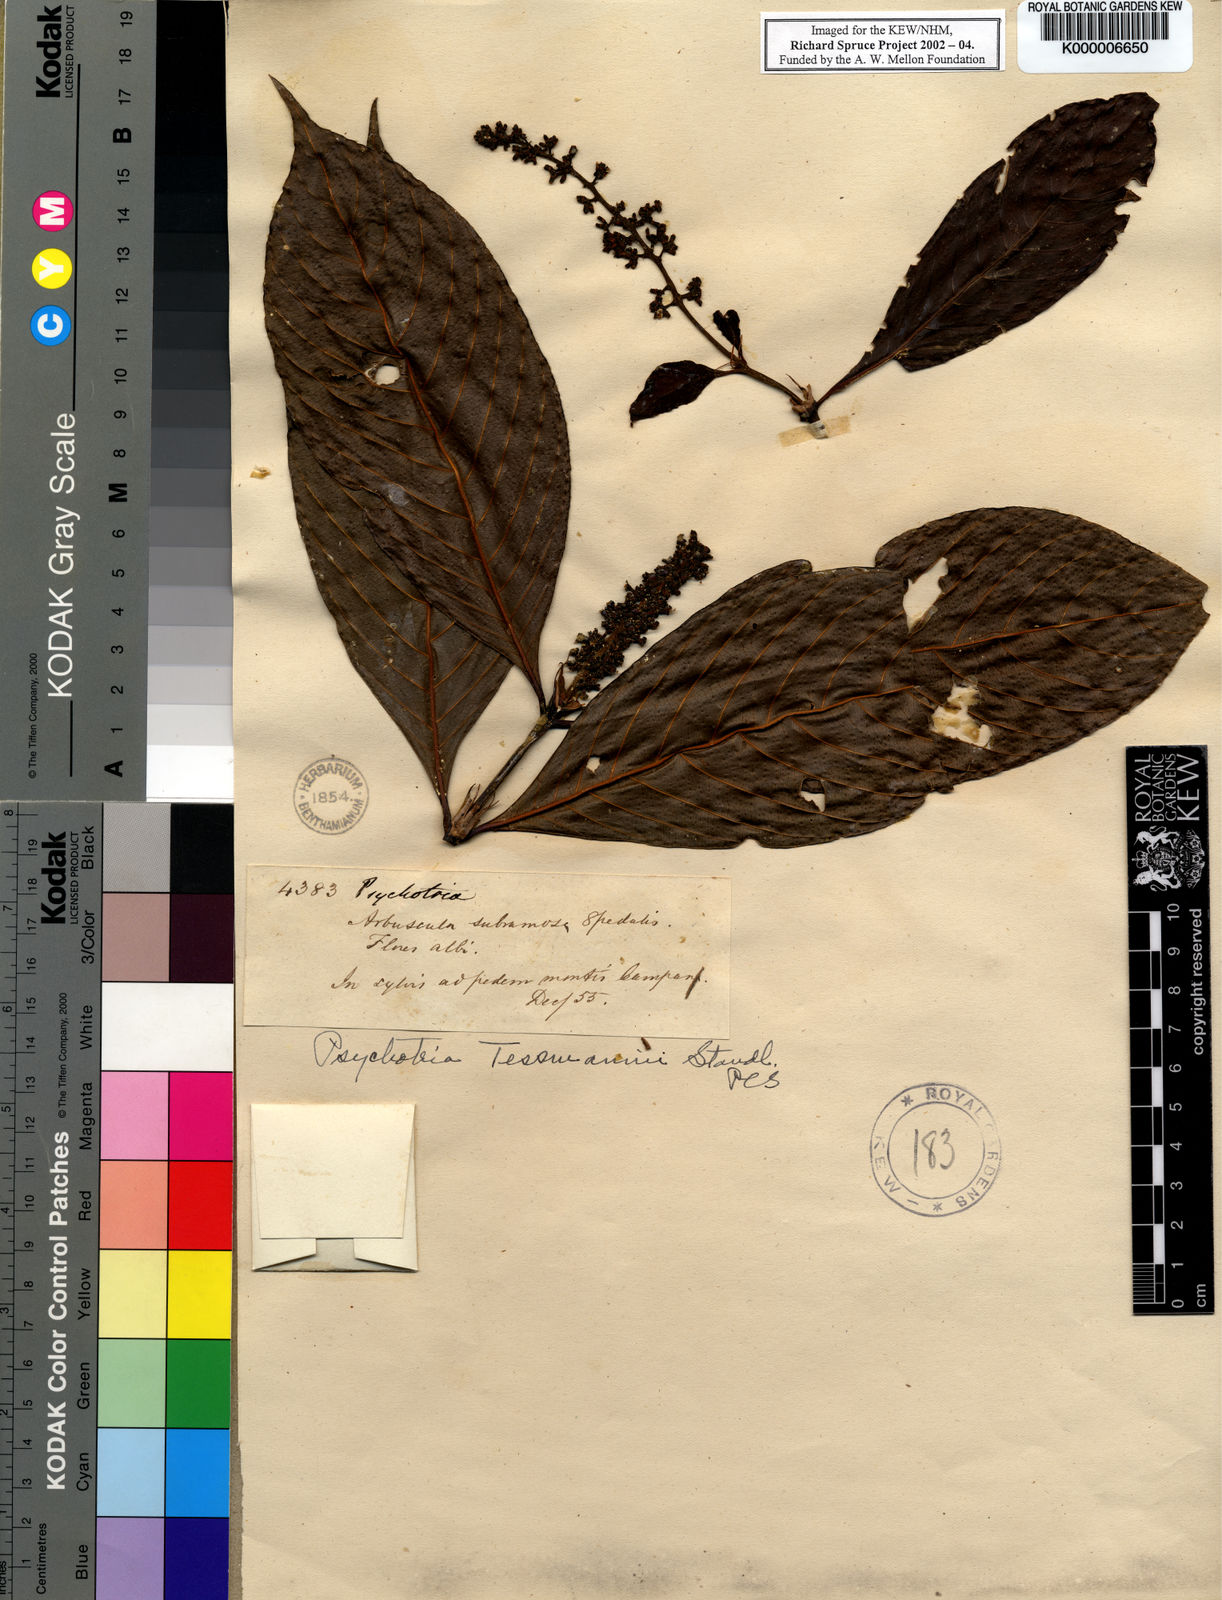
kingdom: Plantae
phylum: Tracheophyta
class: Magnoliopsida
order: Gentianales
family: Rubiaceae
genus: Palicourea
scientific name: Palicourea subfusca
